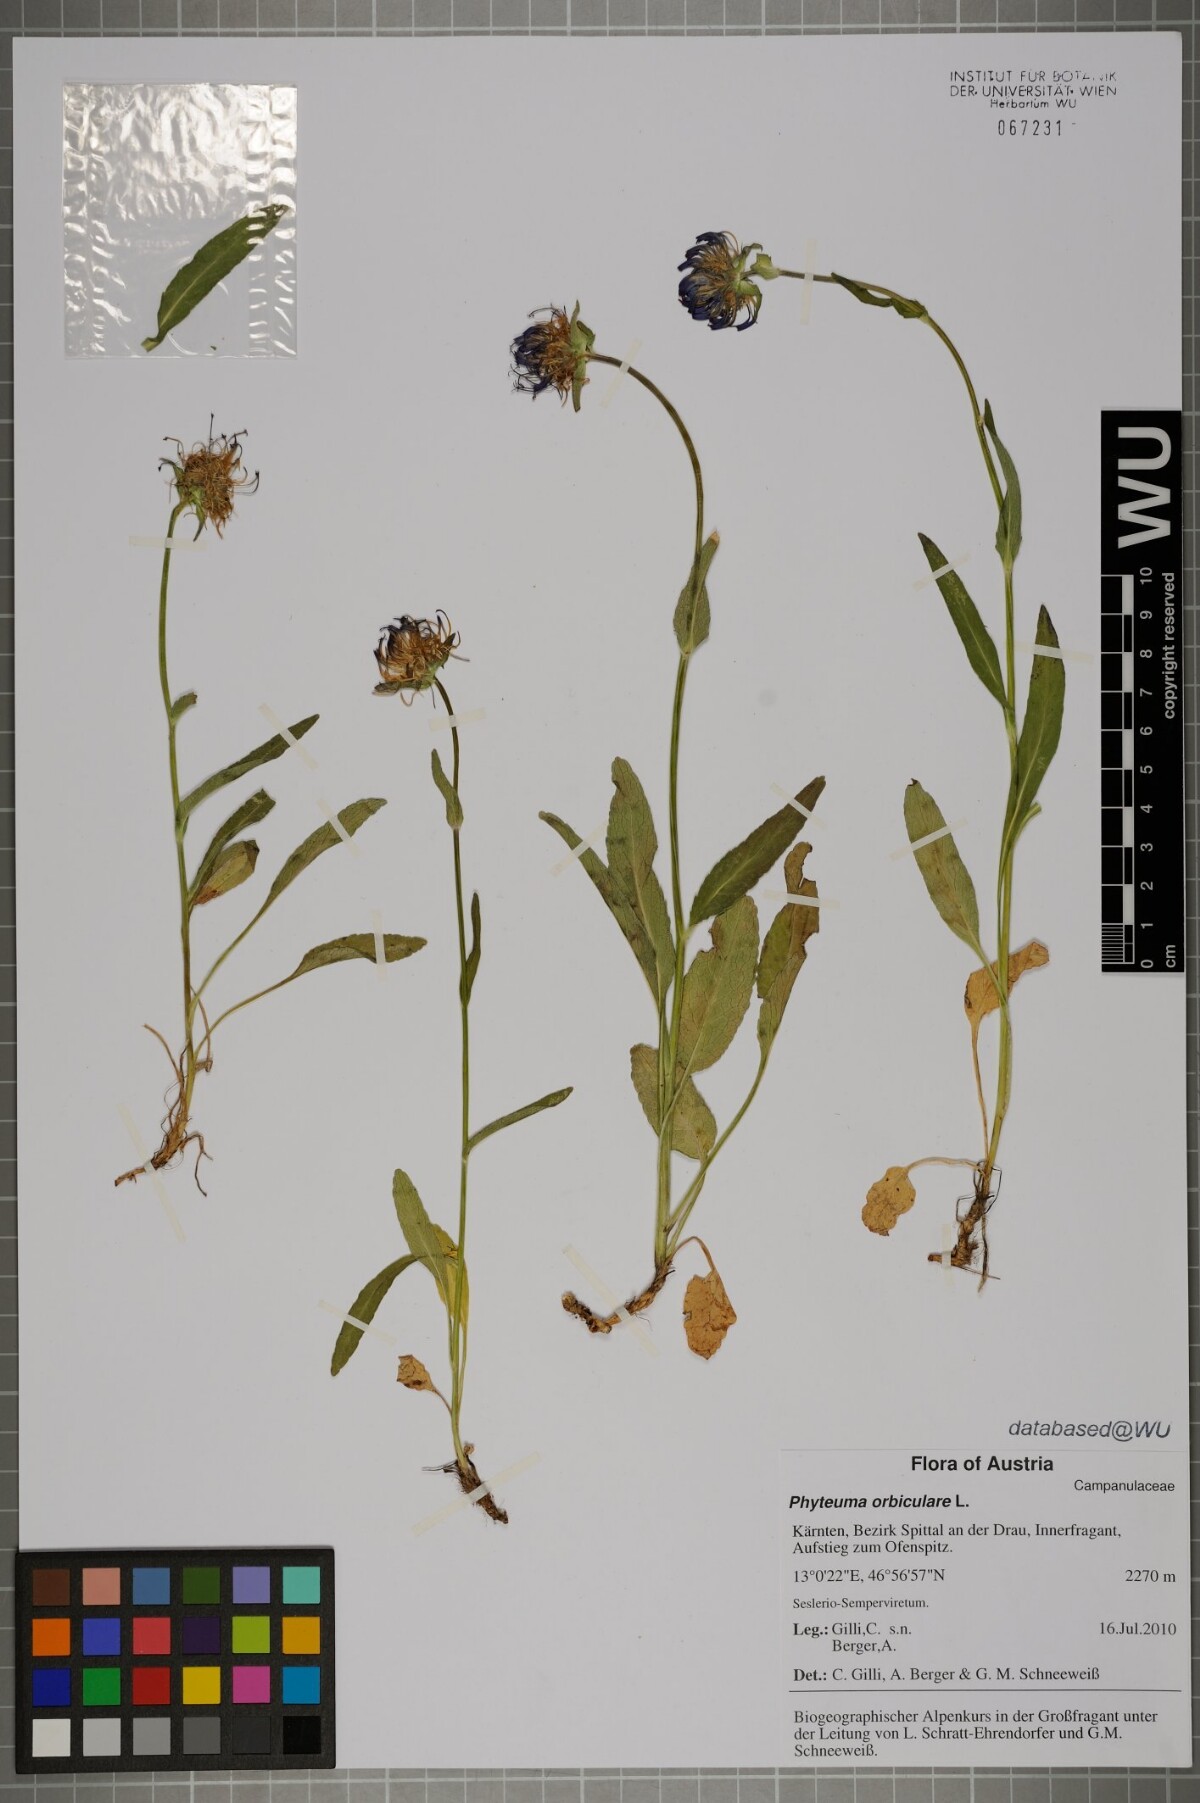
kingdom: Plantae
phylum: Tracheophyta
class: Magnoliopsida
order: Asterales
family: Campanulaceae
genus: Phyteuma
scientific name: Phyteuma orbiculare
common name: Round-headed rampion
